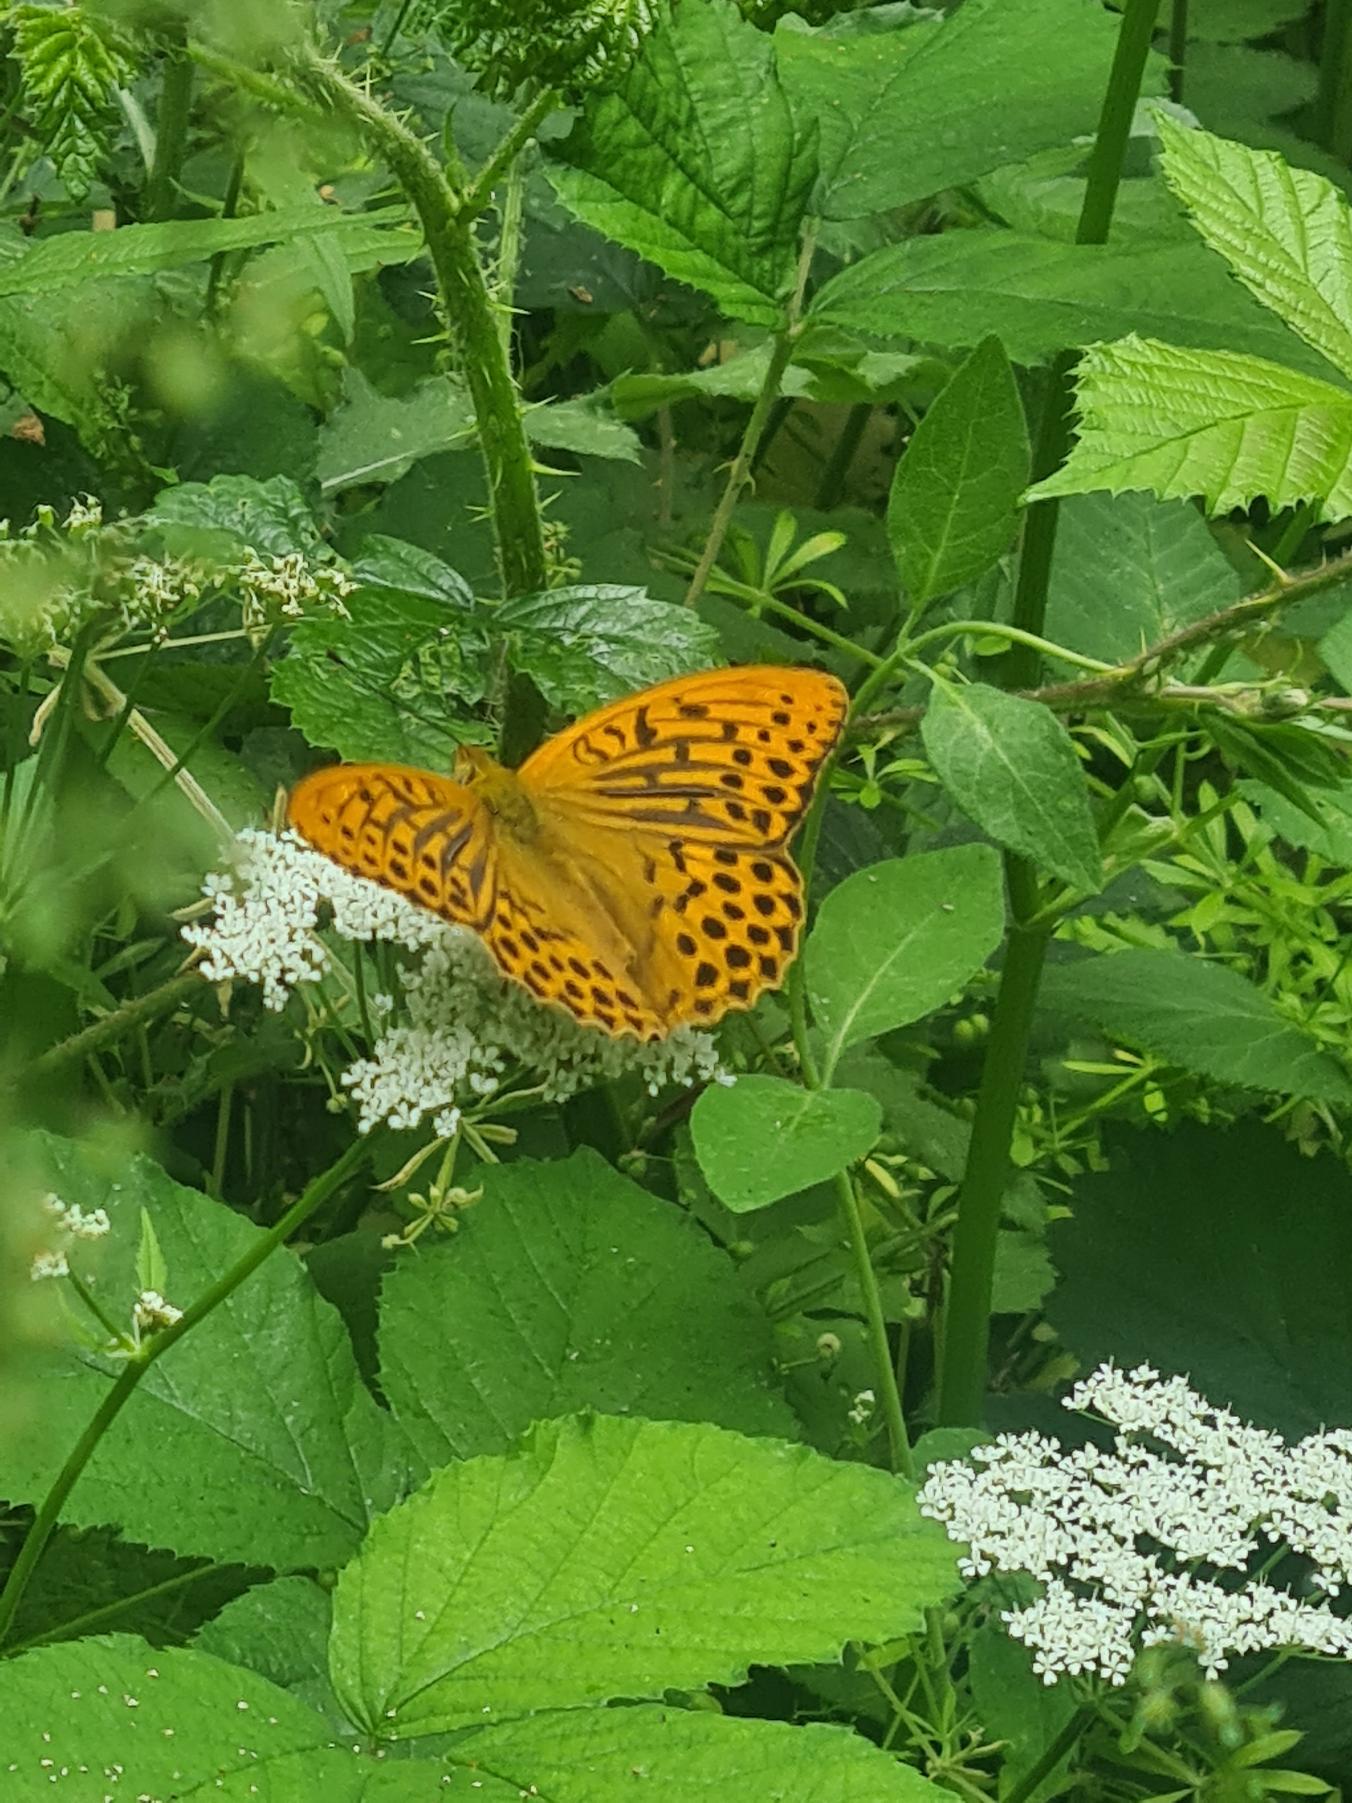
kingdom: Animalia
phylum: Arthropoda
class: Insecta
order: Lepidoptera
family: Nymphalidae
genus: Argynnis
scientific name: Argynnis paphia
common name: Kejserkåbe
